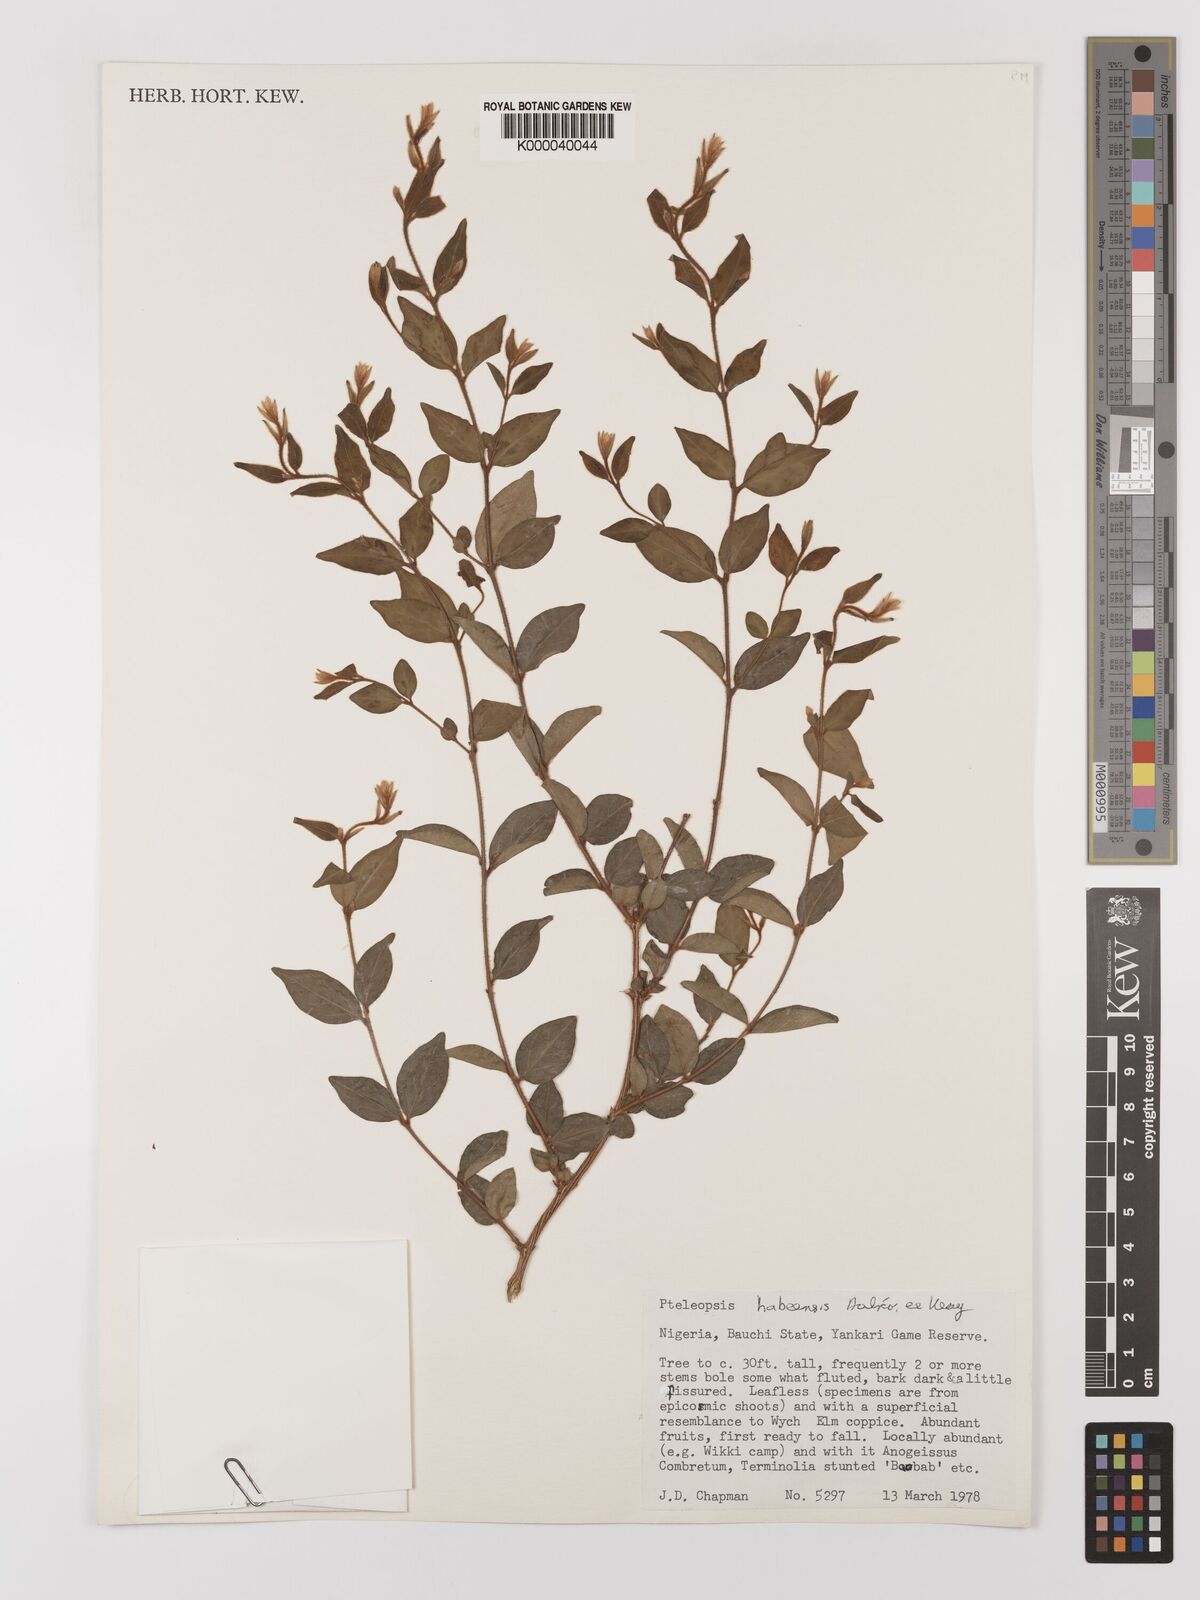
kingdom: Plantae
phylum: Tracheophyta
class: Magnoliopsida
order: Myrtales
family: Combretaceae
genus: Terminalia
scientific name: Terminalia
